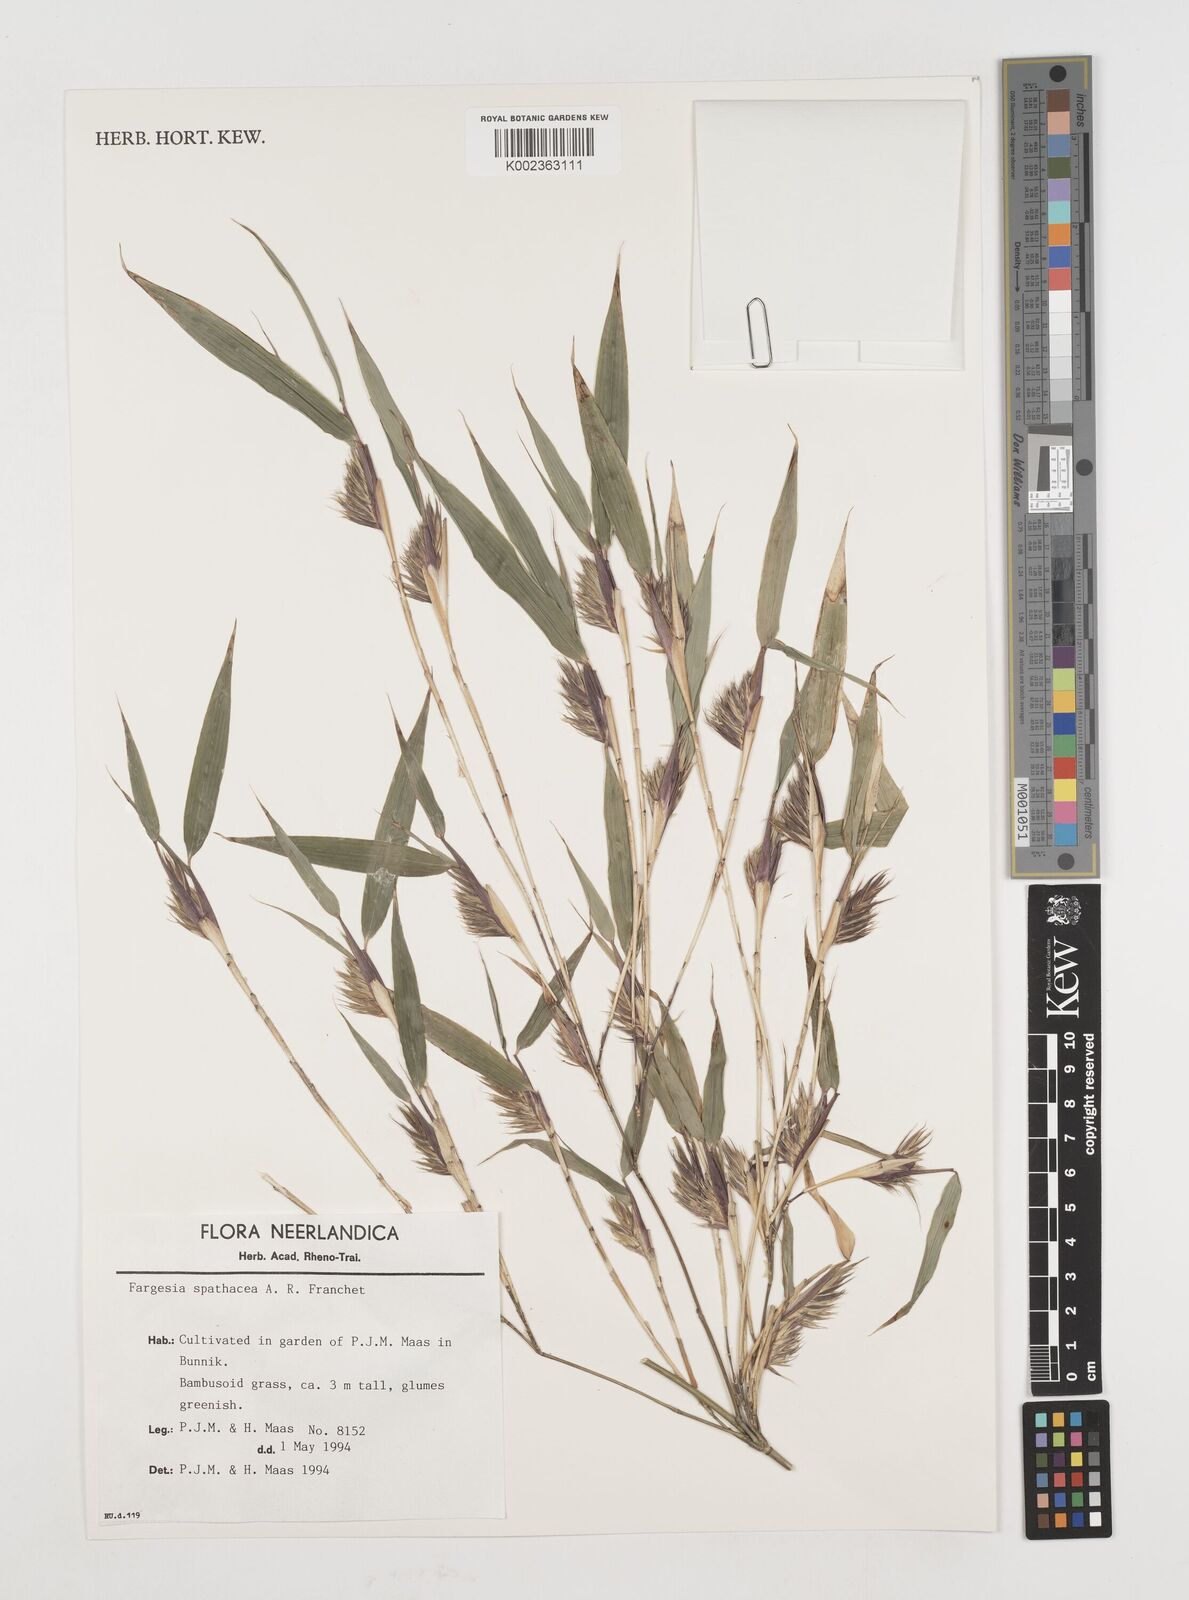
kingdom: Plantae
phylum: Tracheophyta
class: Liliopsida
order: Poales
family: Poaceae
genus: Fargesia
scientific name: Fargesia murielae
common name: Umbrella bamboo
